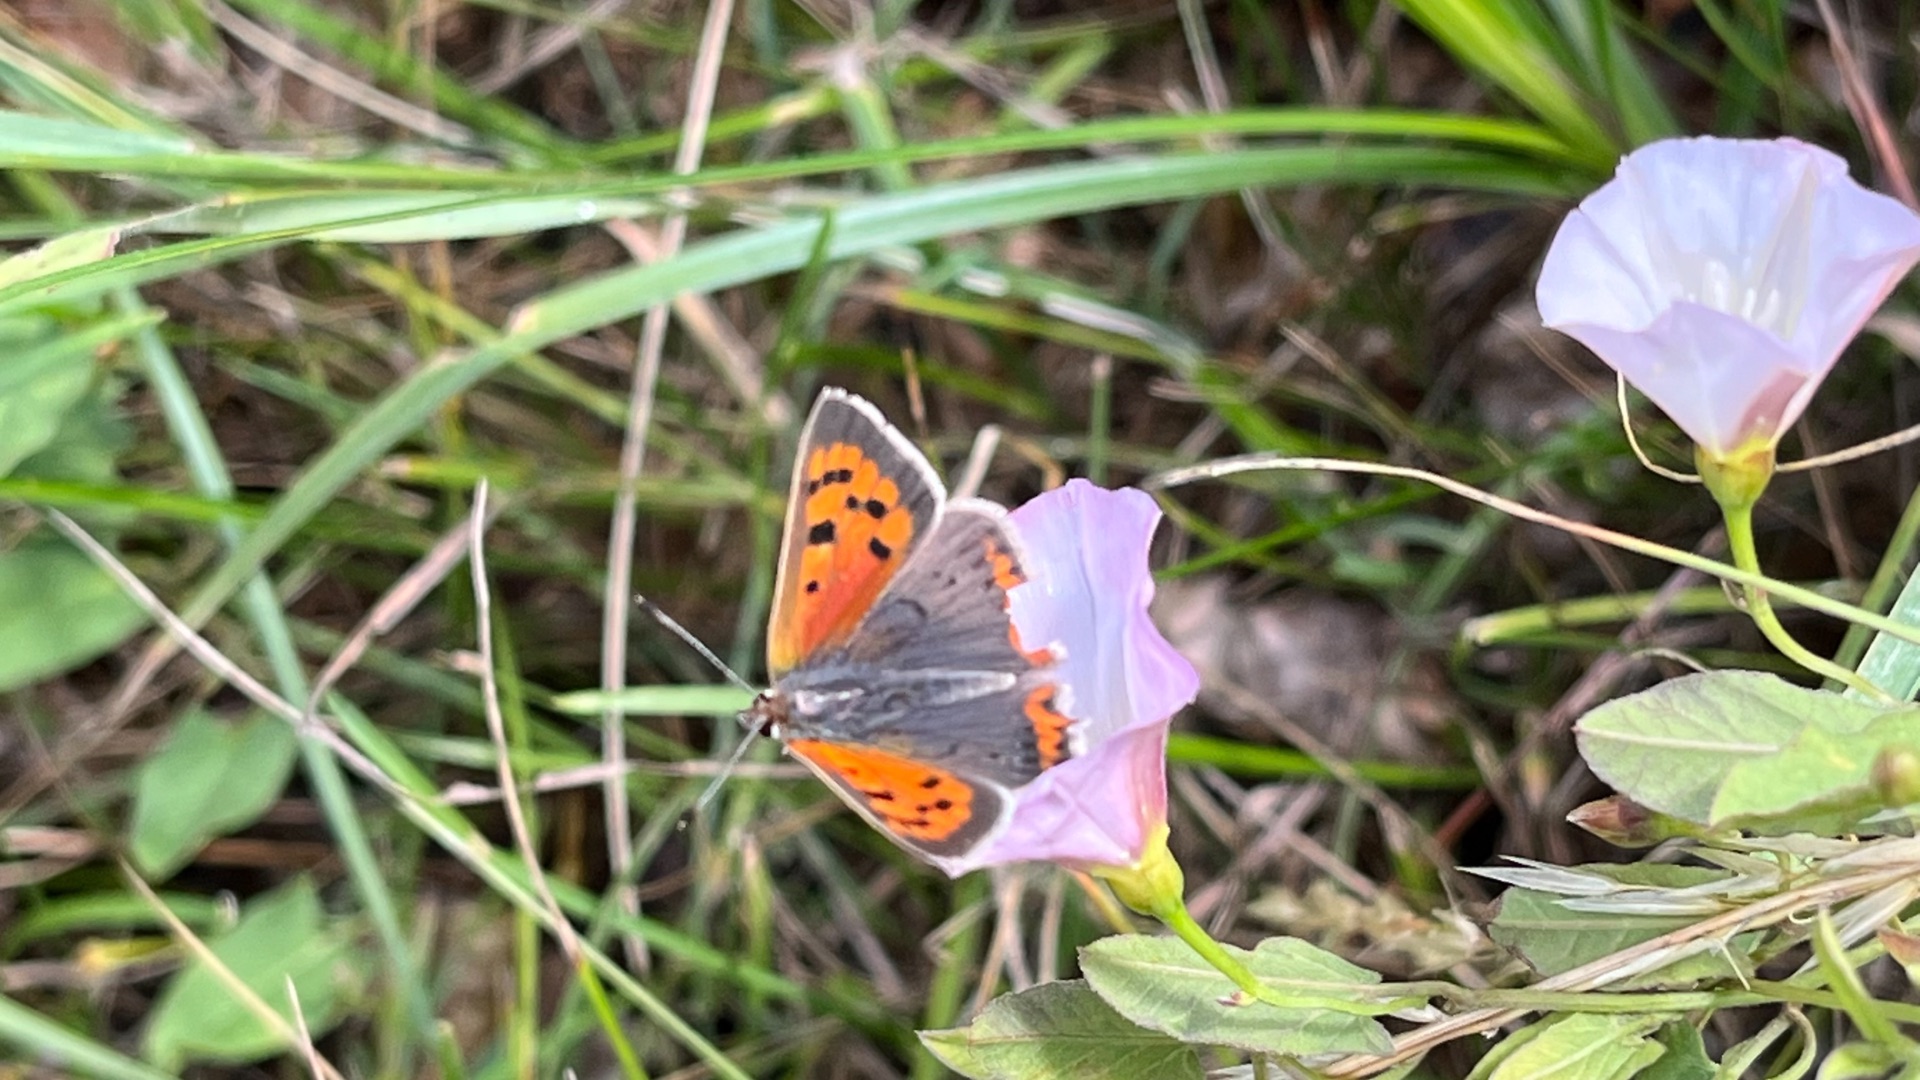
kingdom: Animalia
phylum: Arthropoda
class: Insecta
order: Lepidoptera
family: Lycaenidae
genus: Lycaena
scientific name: Lycaena phlaeas
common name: Lille ildfugl
